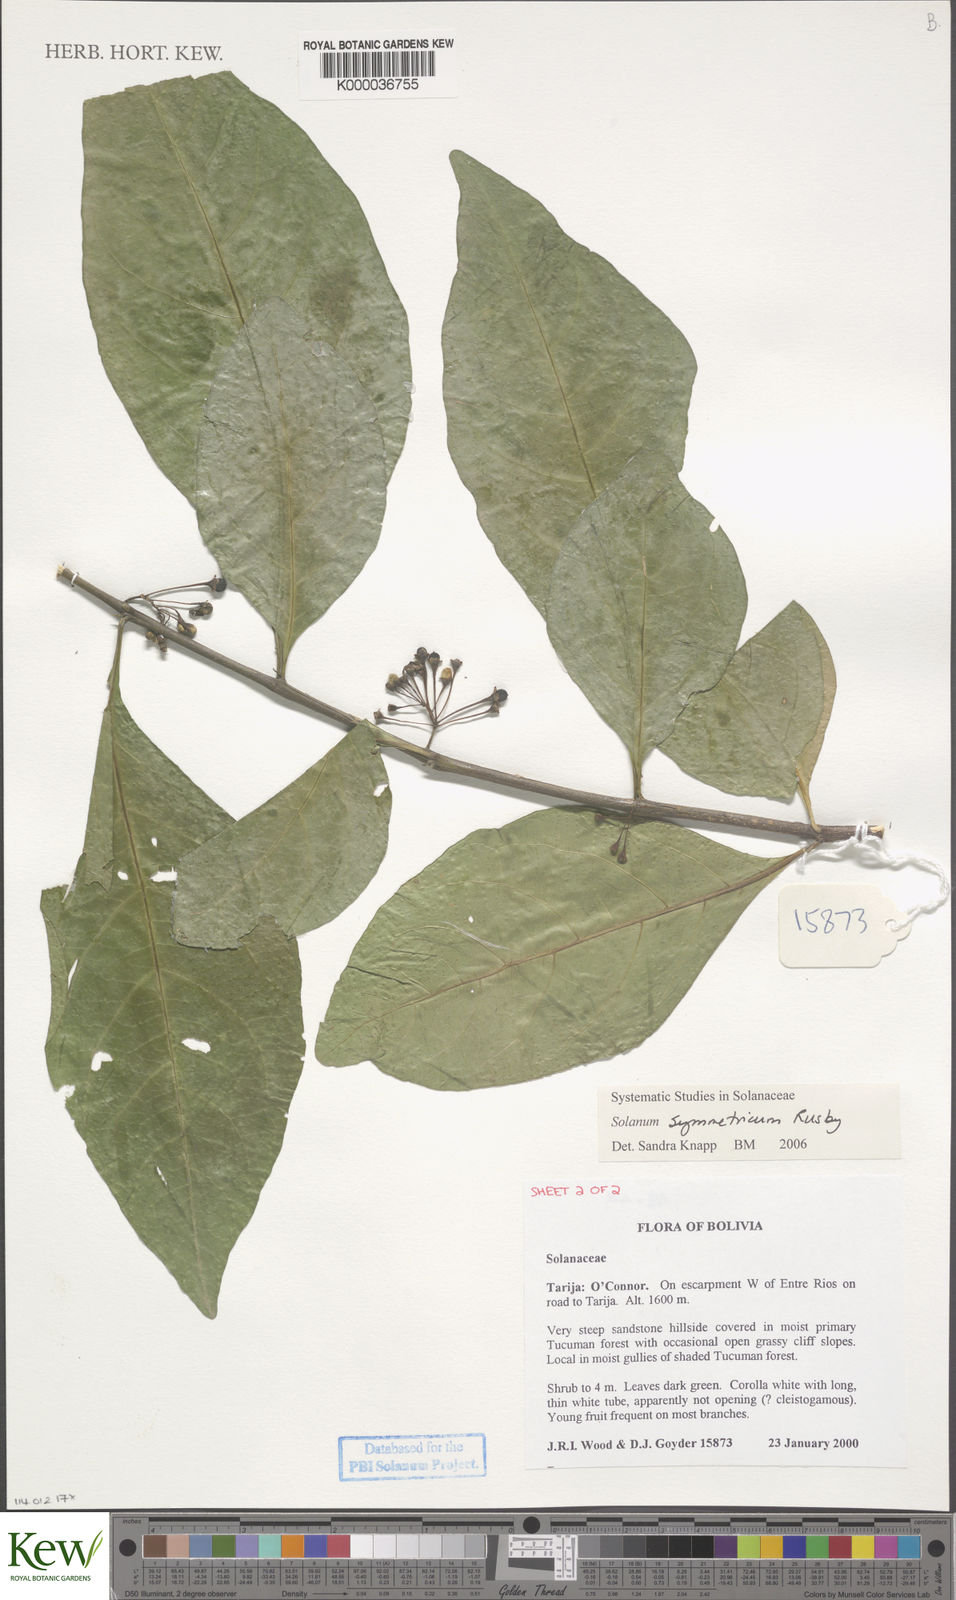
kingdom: Plantae
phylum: Tracheophyta
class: Magnoliopsida
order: Solanales
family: Solanaceae
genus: Solanum
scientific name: Solanum symmetricum
